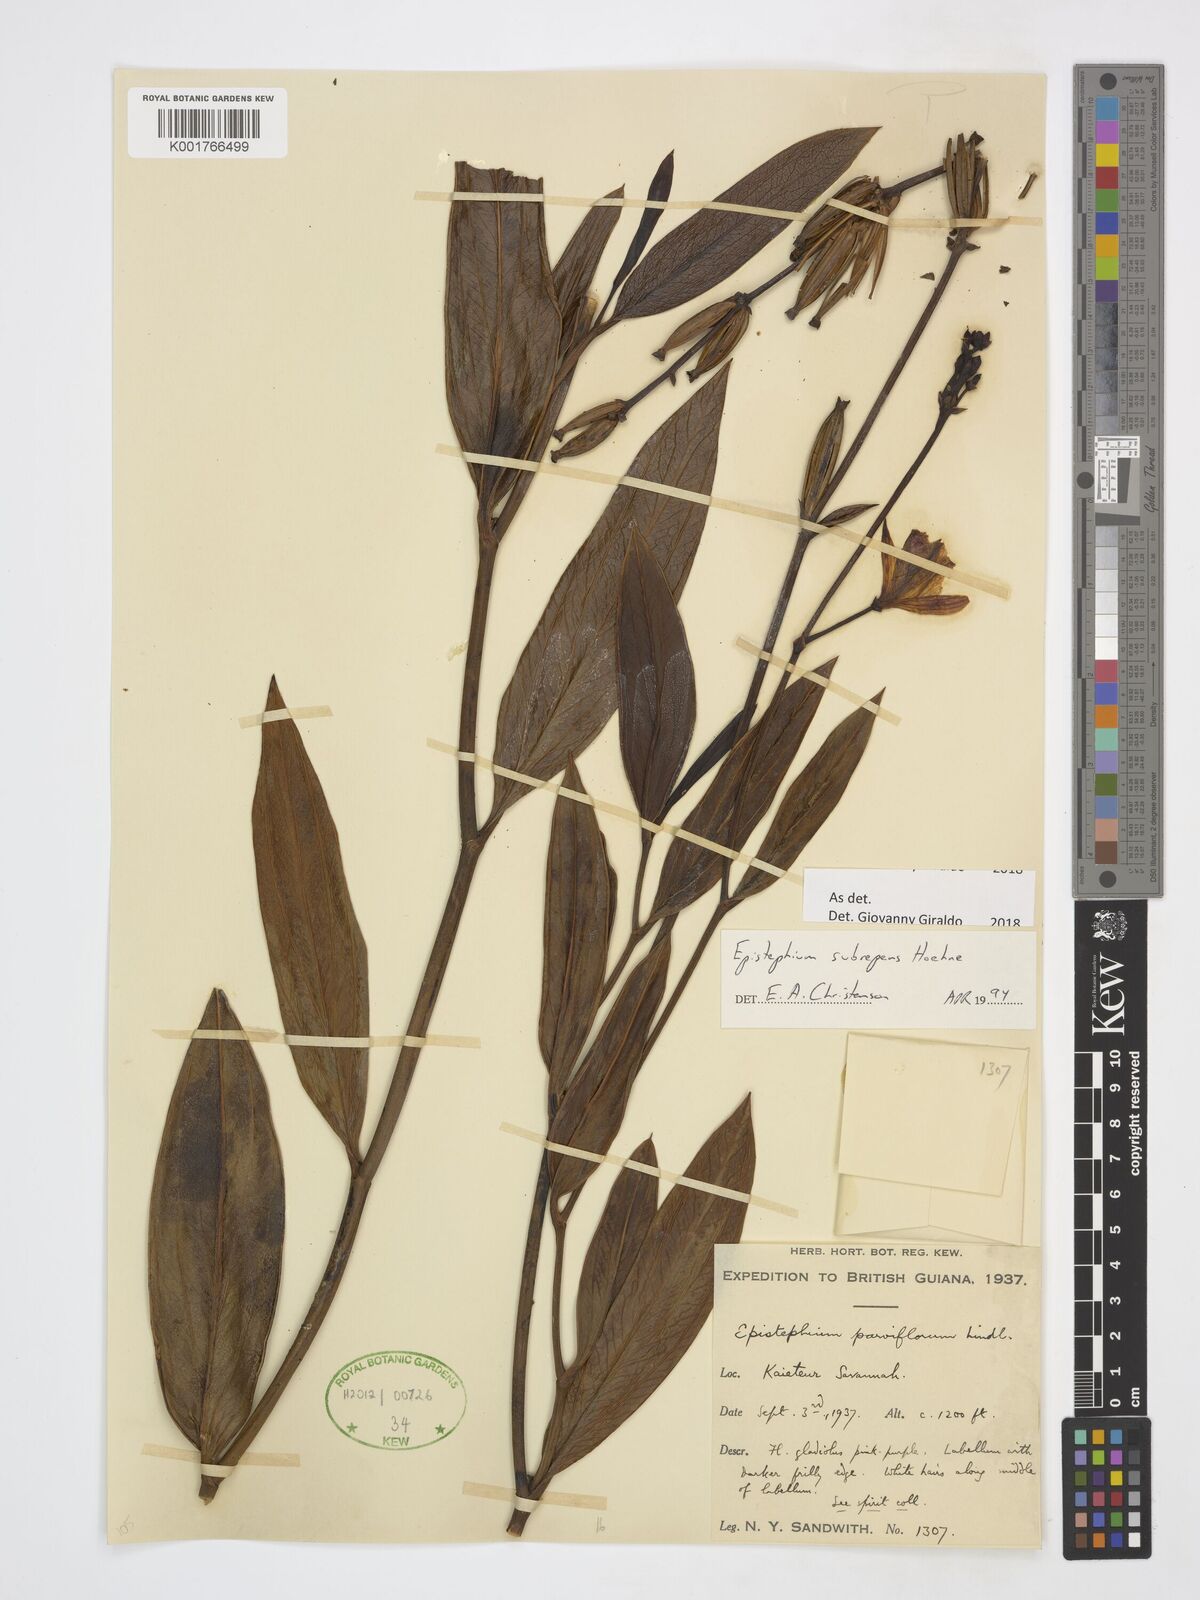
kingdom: Plantae
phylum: Tracheophyta
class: Liliopsida
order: Asparagales
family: Orchidaceae
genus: Epistephium
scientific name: Epistephium subrepens
